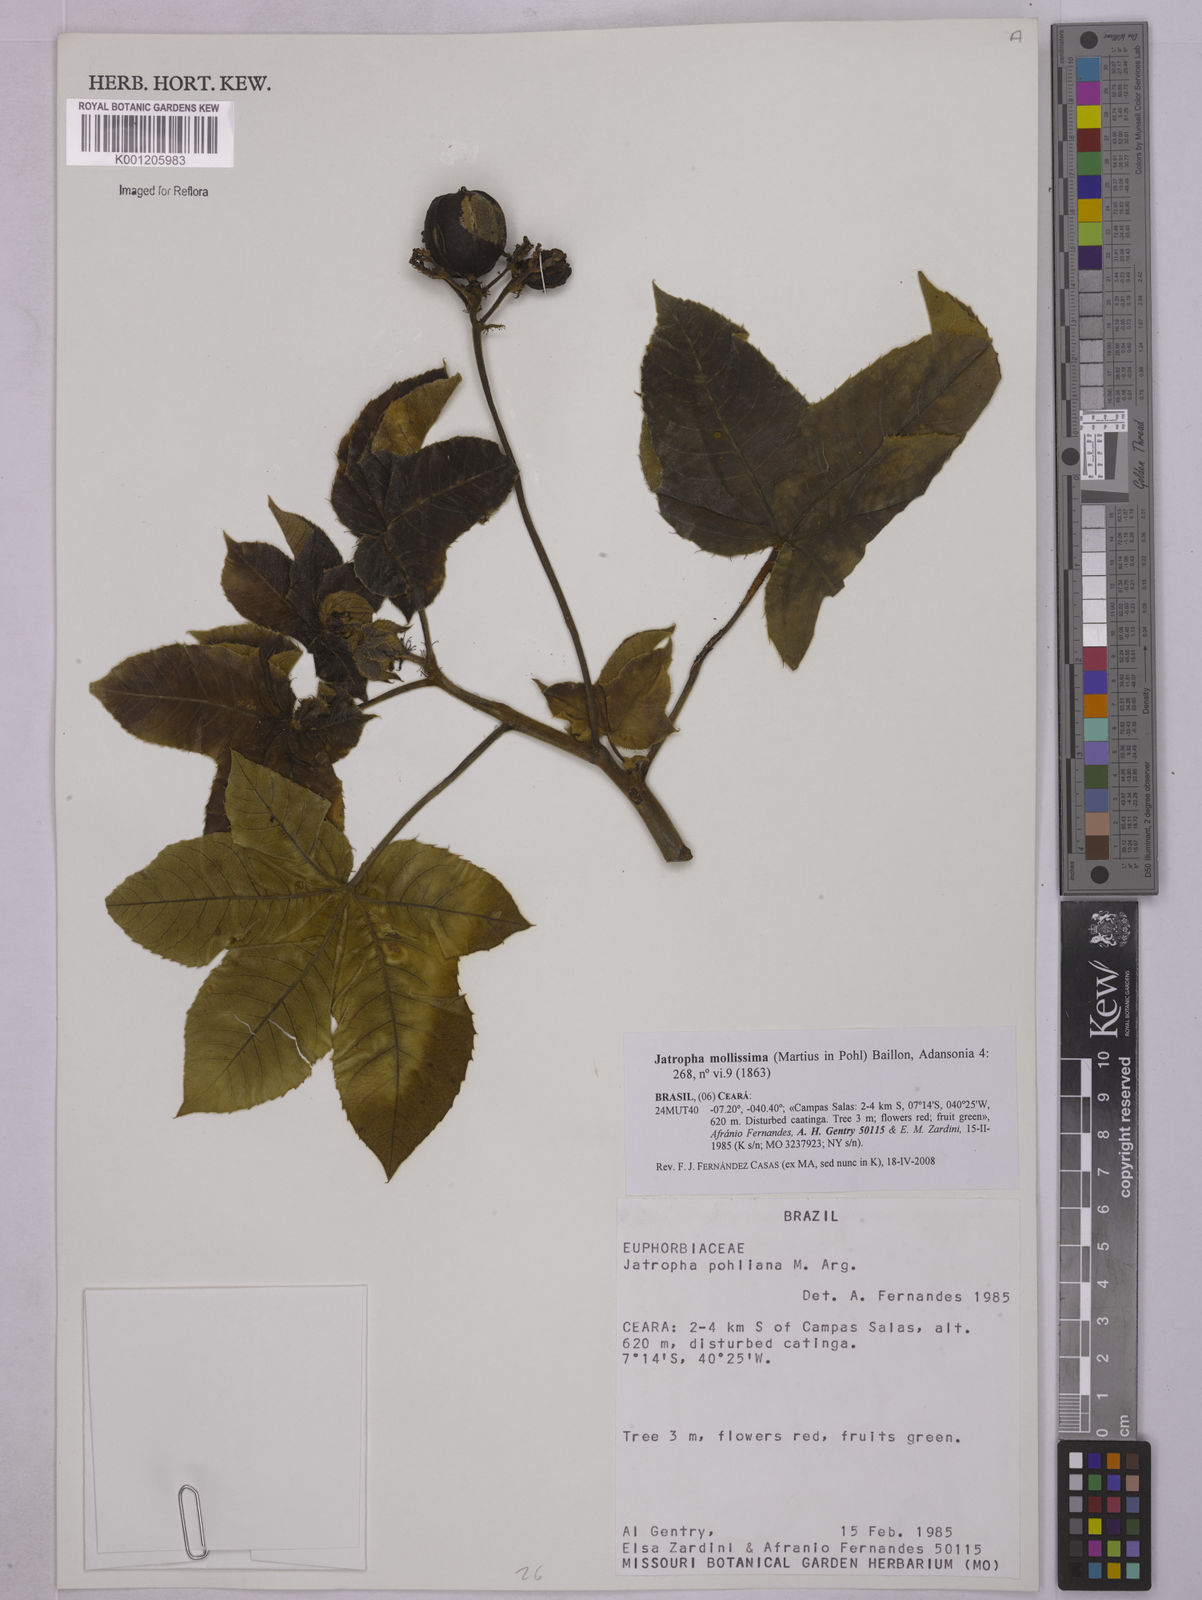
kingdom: Plantae
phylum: Tracheophyta
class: Magnoliopsida
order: Malpighiales
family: Euphorbiaceae
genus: Jatropha
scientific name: Jatropha mollissima
